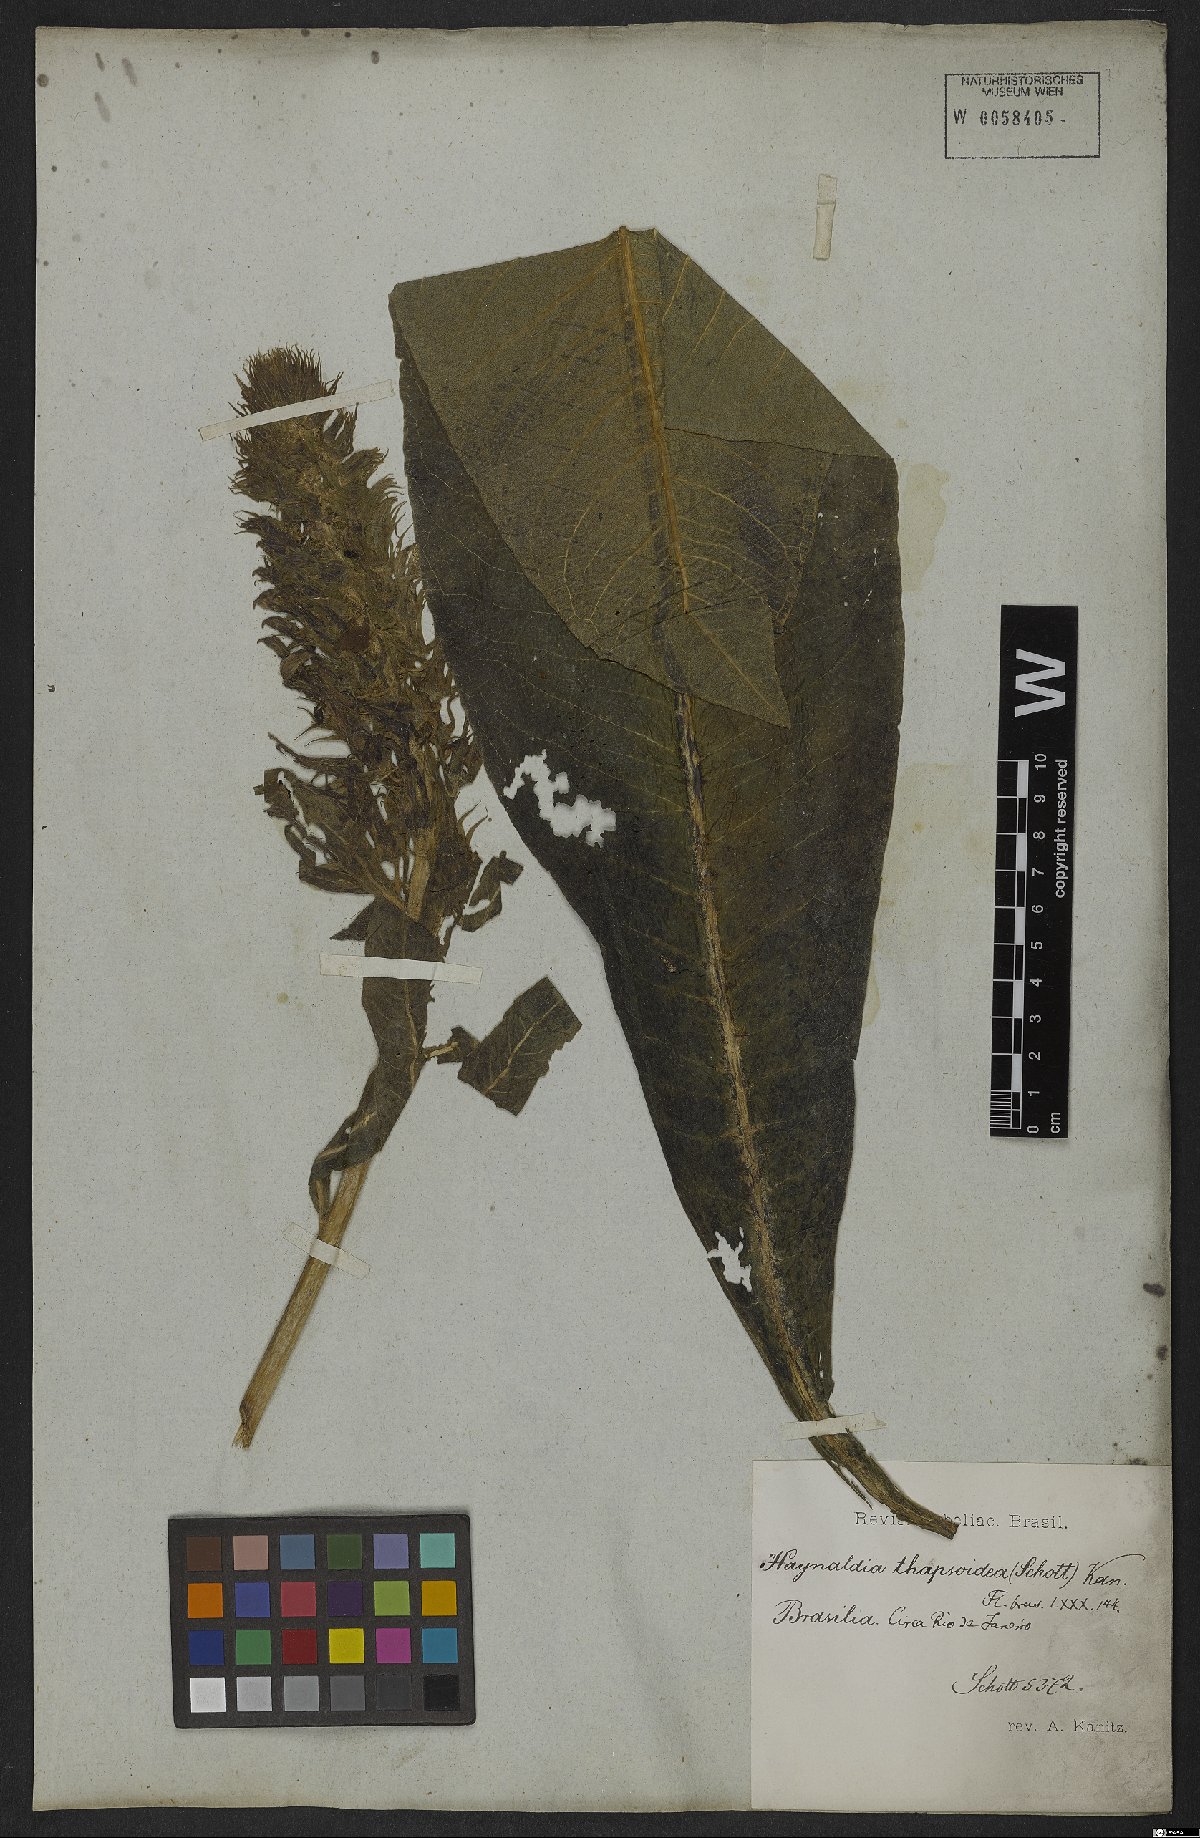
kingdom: Plantae
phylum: Tracheophyta
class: Magnoliopsida
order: Asterales
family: Campanulaceae
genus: Lobelia
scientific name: Lobelia thapsoidea
